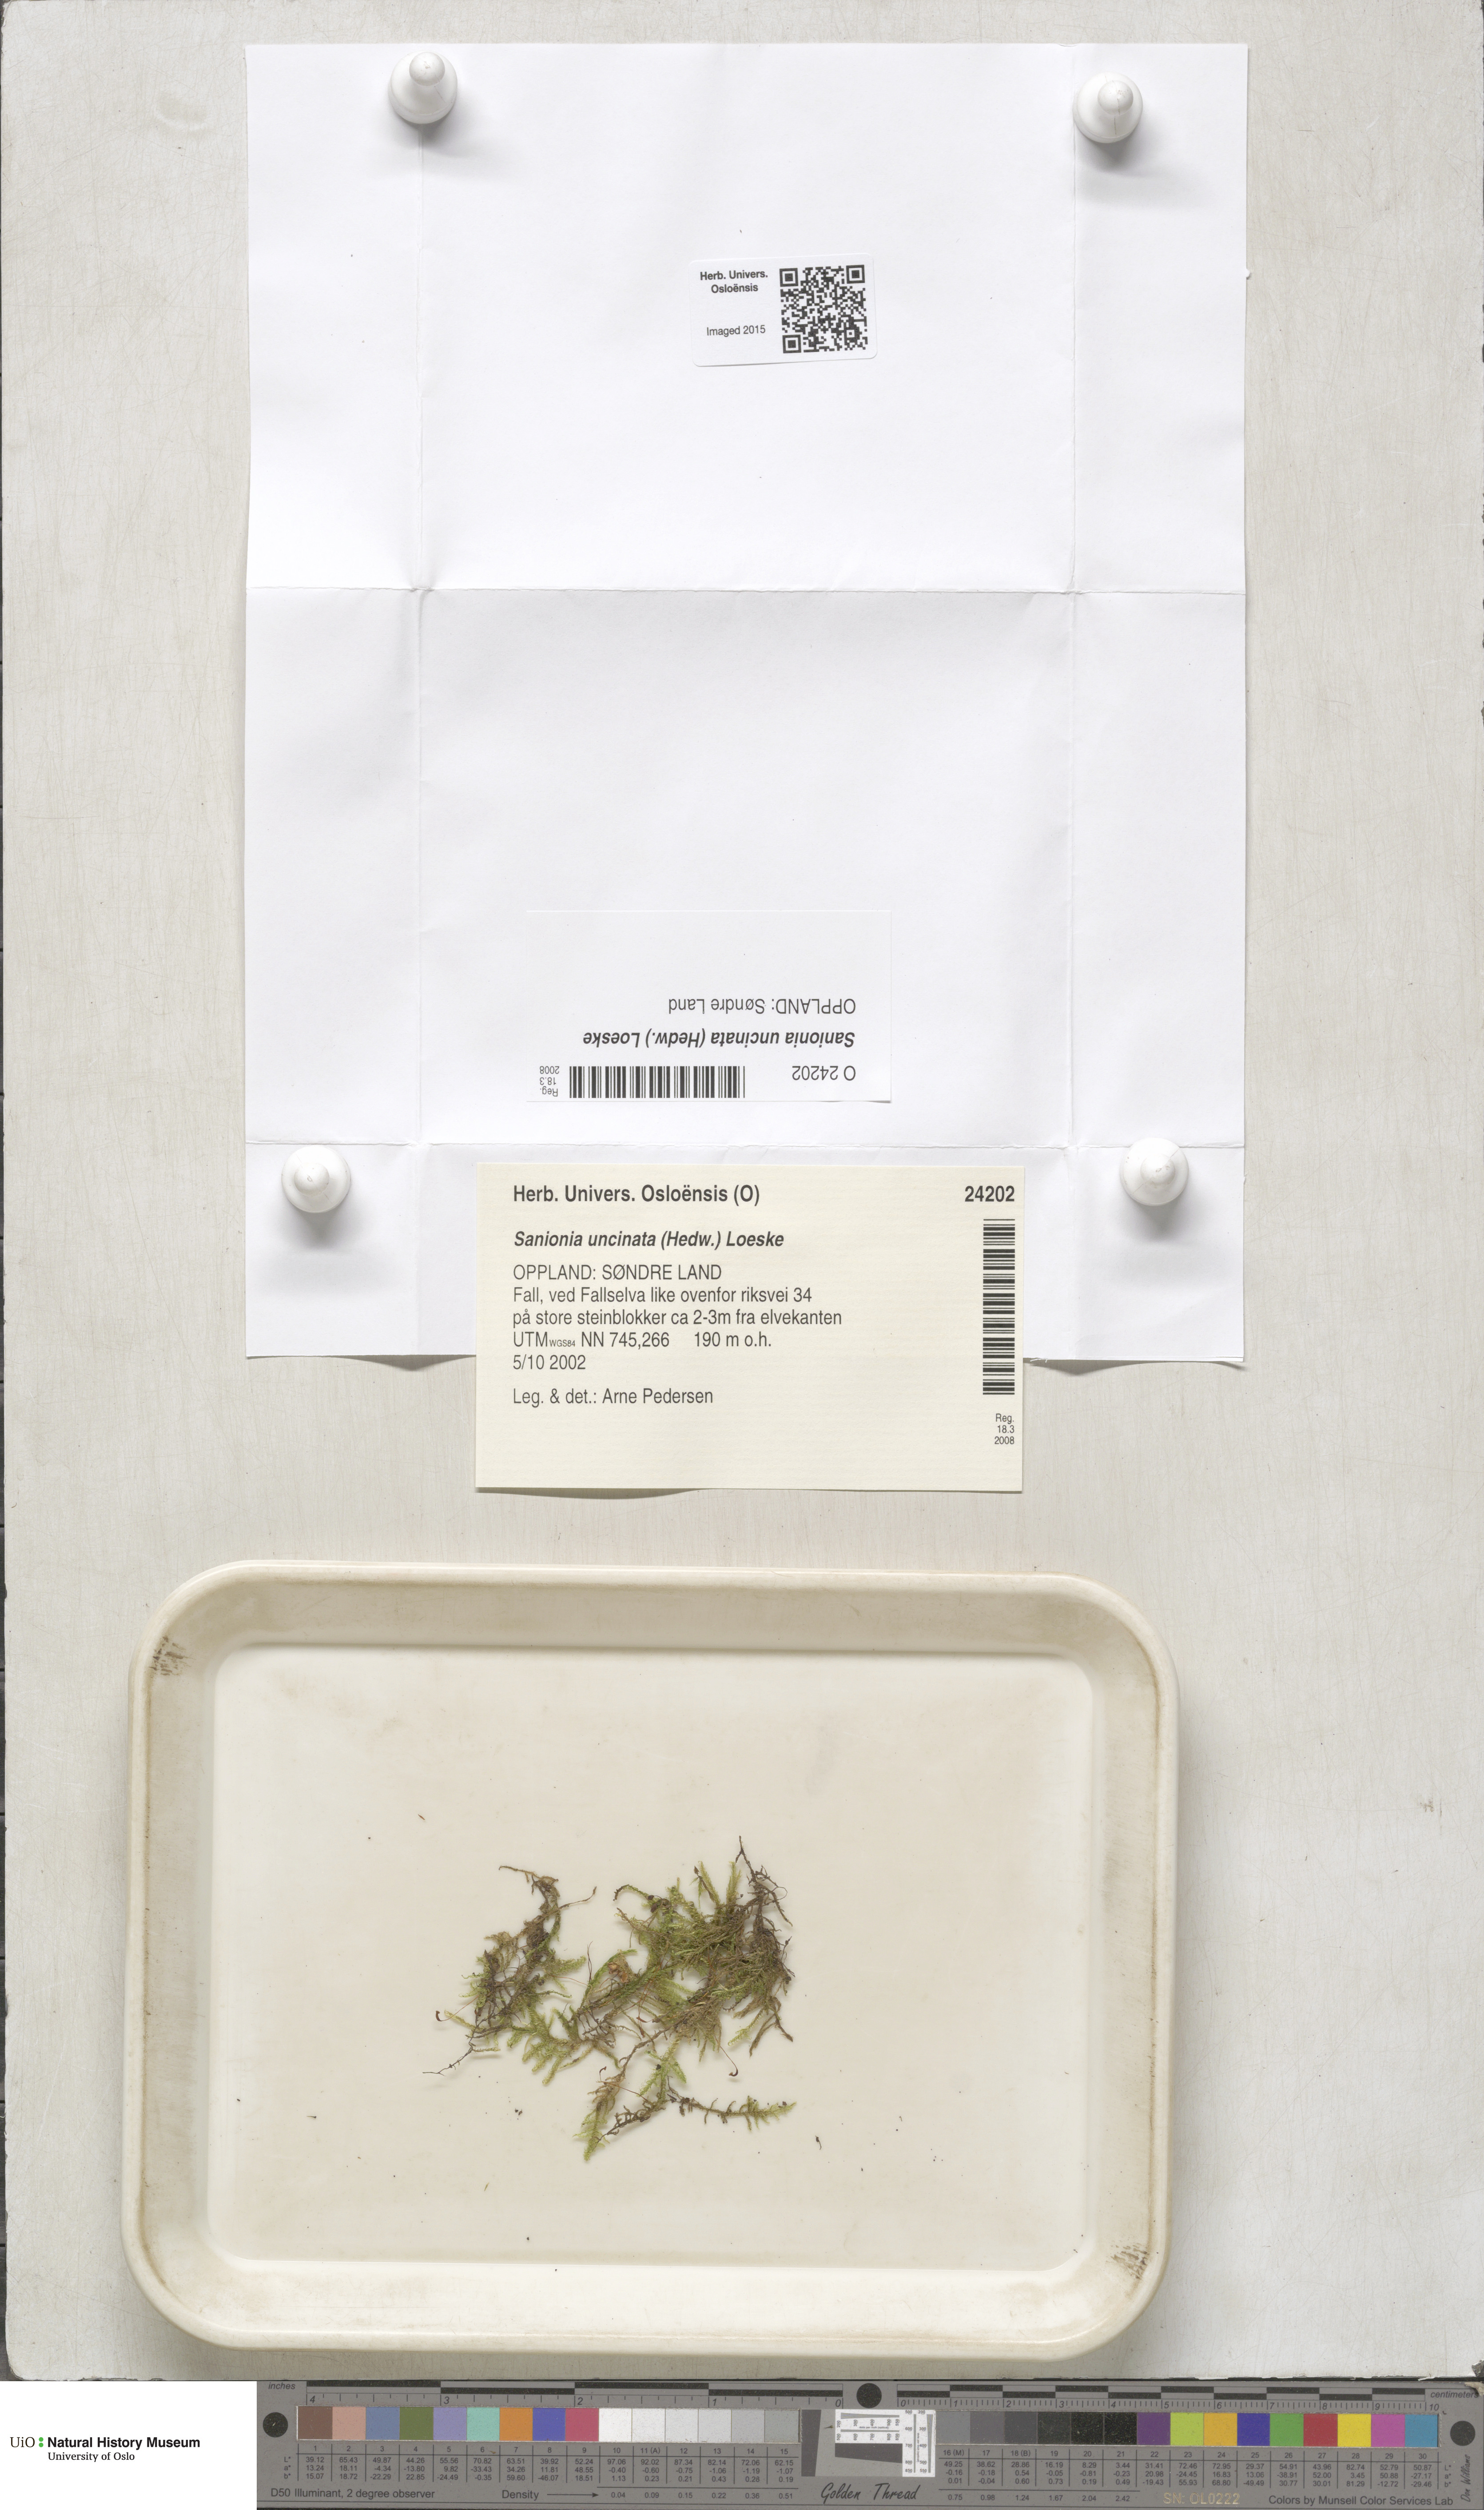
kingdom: Plantae
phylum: Bryophyta
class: Bryopsida
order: Hypnales
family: Scorpidiaceae
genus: Sanionia
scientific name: Sanionia uncinata
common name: Sickle moss
